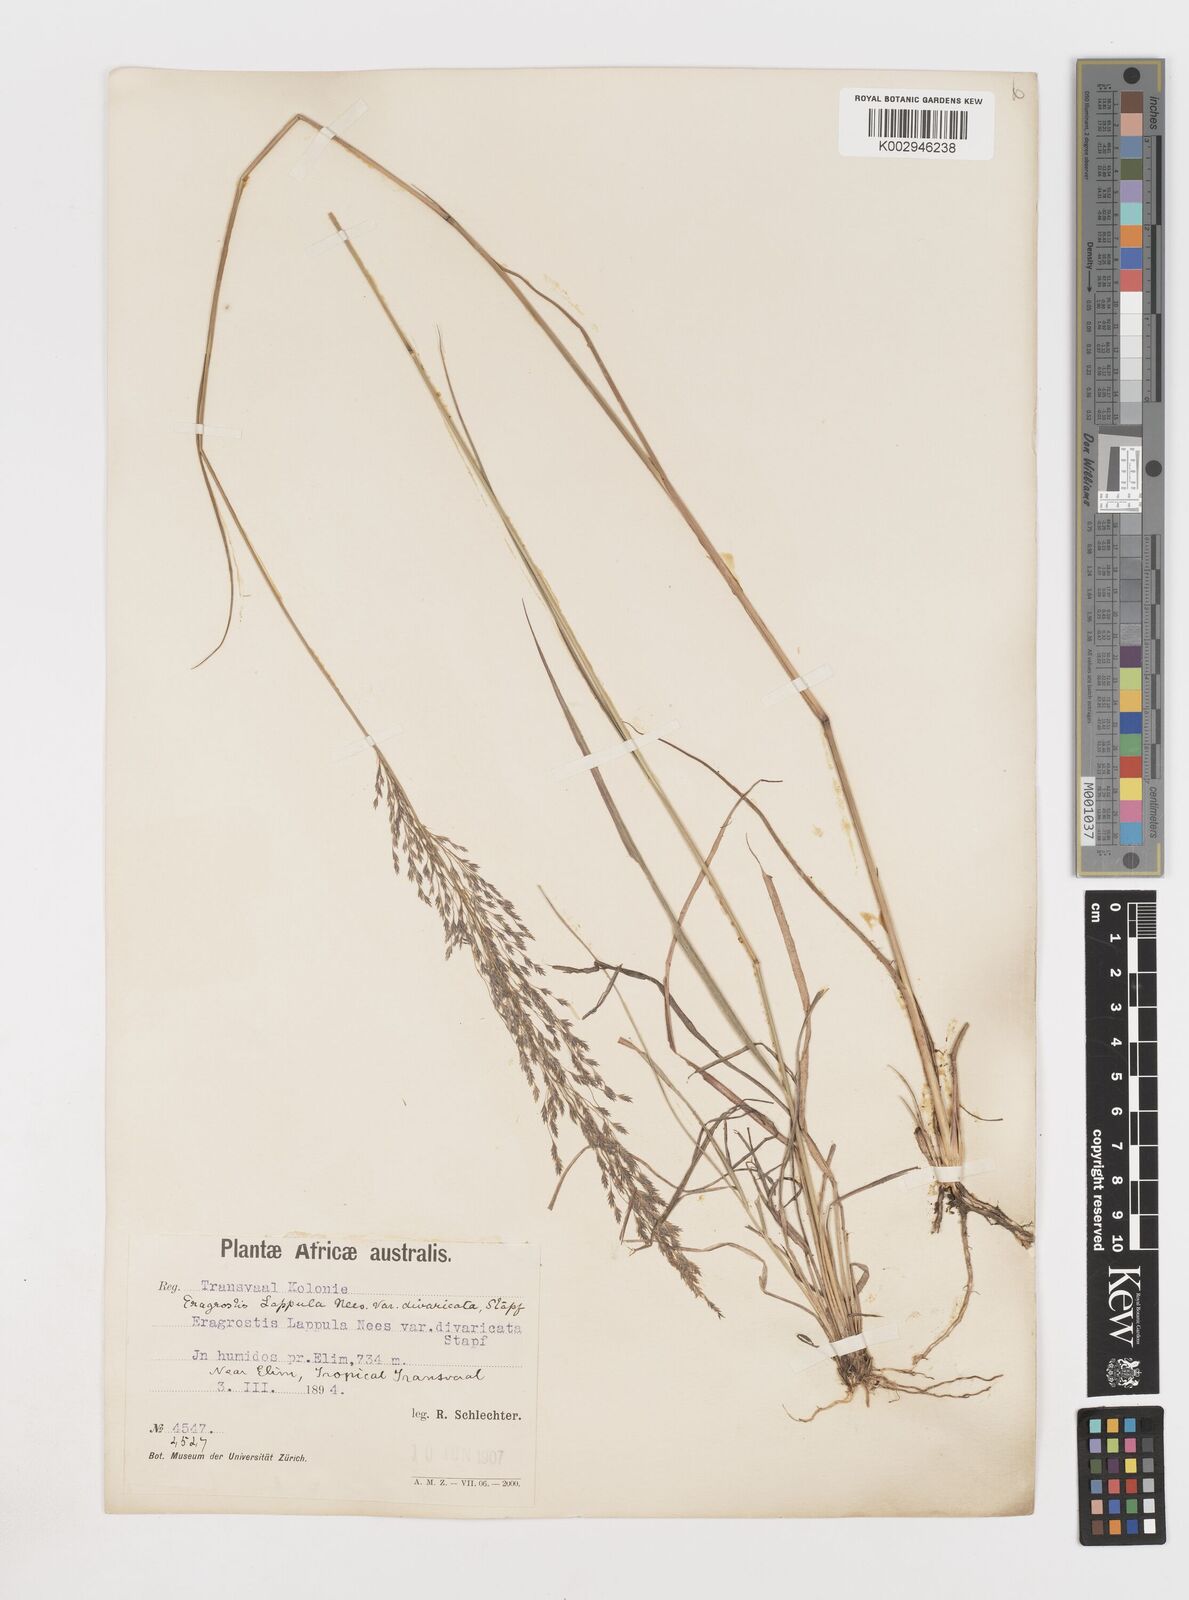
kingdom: Plantae
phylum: Tracheophyta
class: Liliopsida
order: Poales
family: Poaceae
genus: Eragrostis
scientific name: Eragrostis lappula
